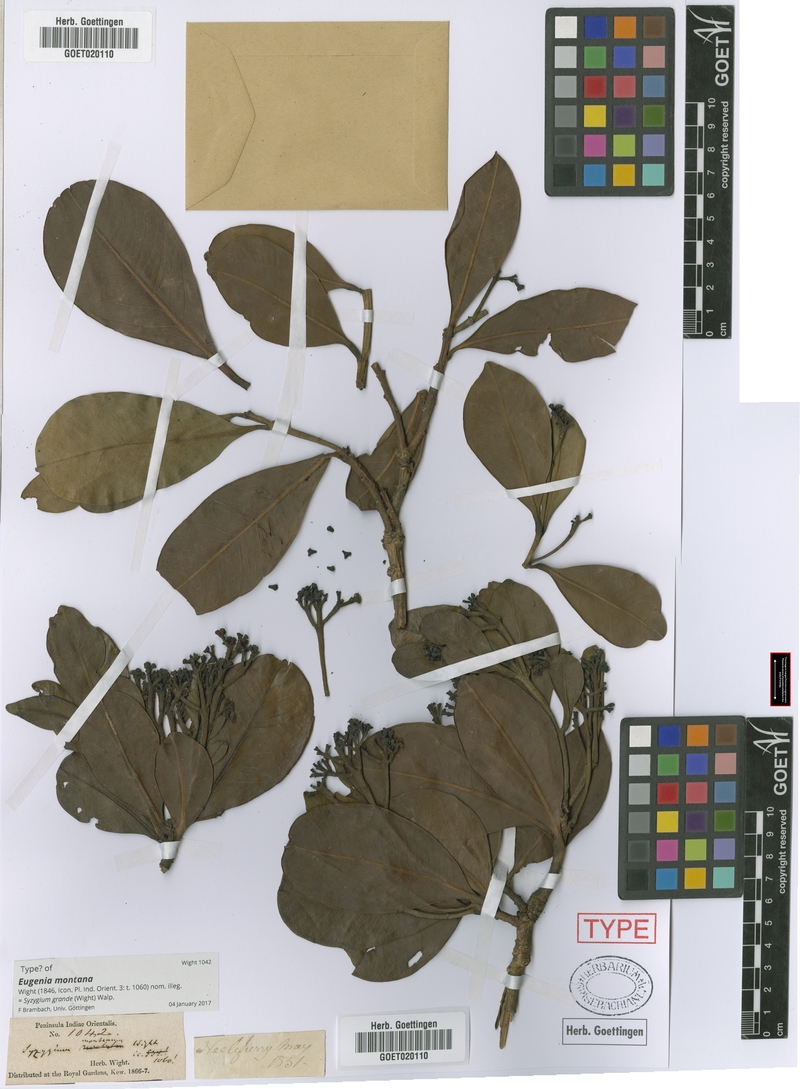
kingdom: Plantae
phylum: Tracheophyta
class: Magnoliopsida
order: Myrtales
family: Myrtaceae
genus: Syzygium
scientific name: Syzygium grande
